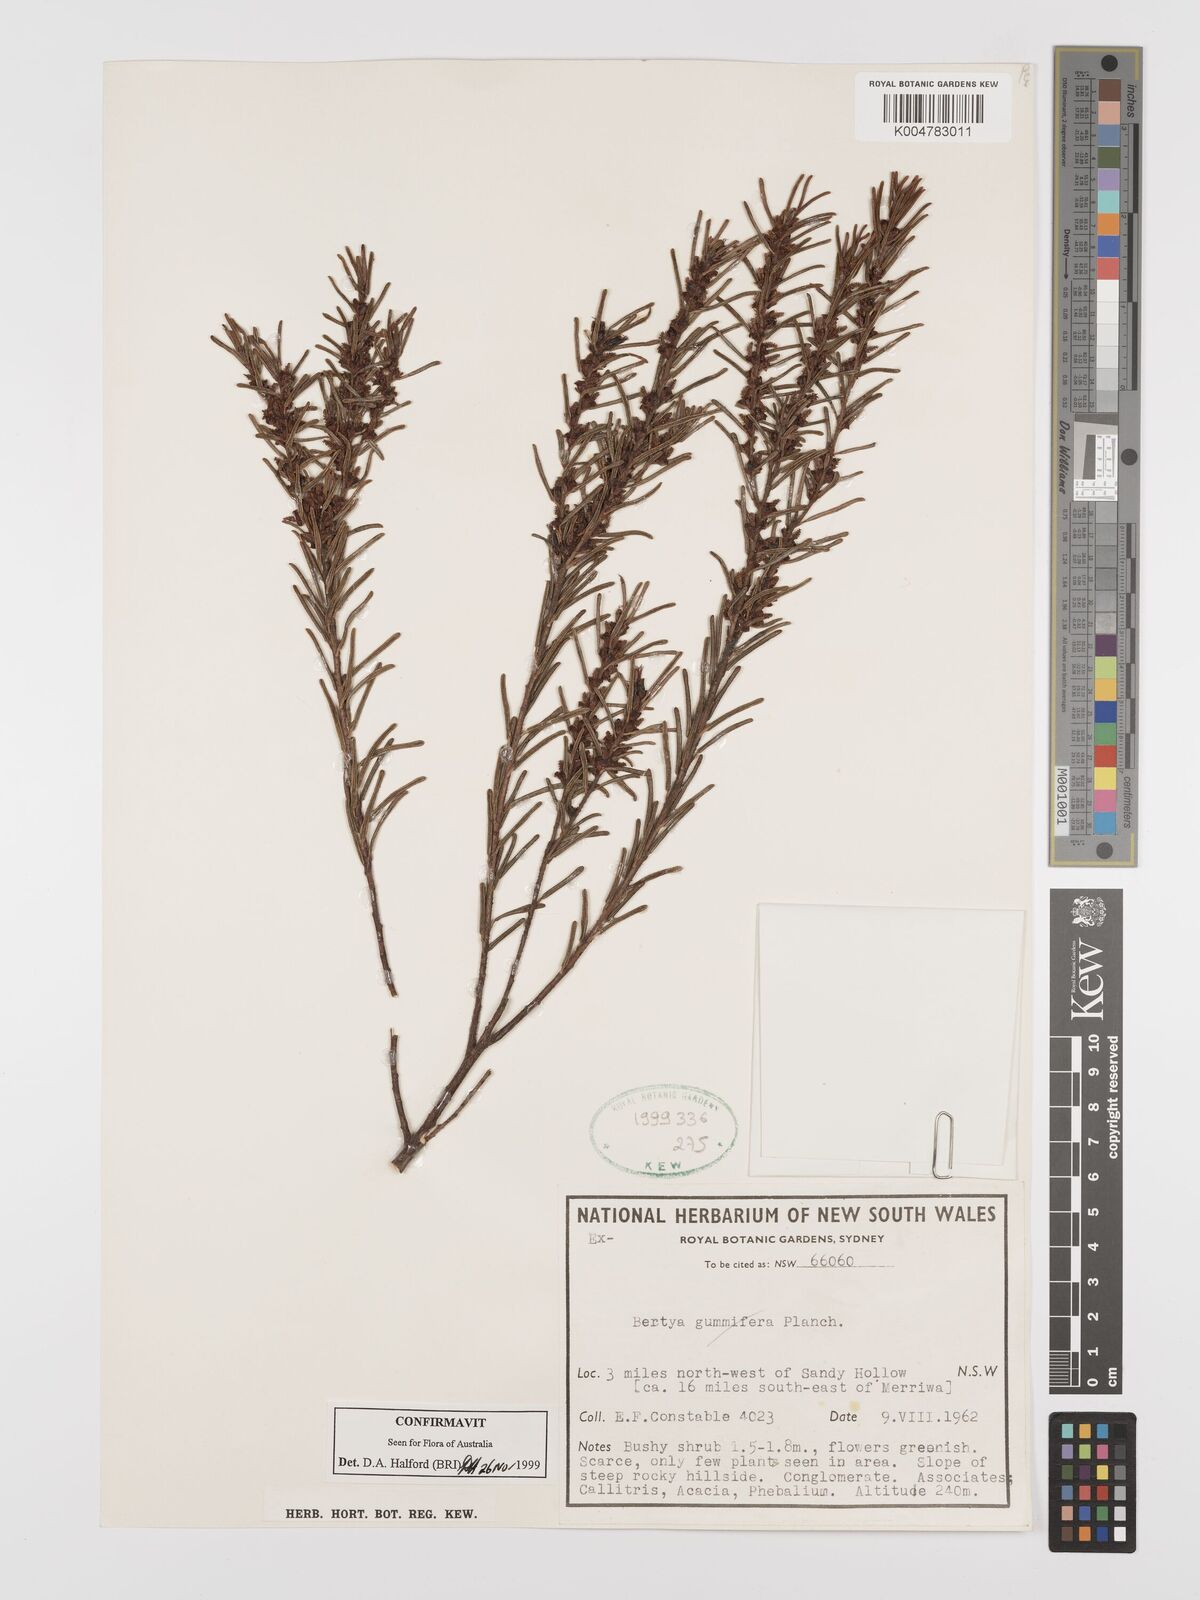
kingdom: Plantae
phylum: Tracheophyta
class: Magnoliopsida
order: Malpighiales
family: Euphorbiaceae
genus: Bertya
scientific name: Bertya gummifera
